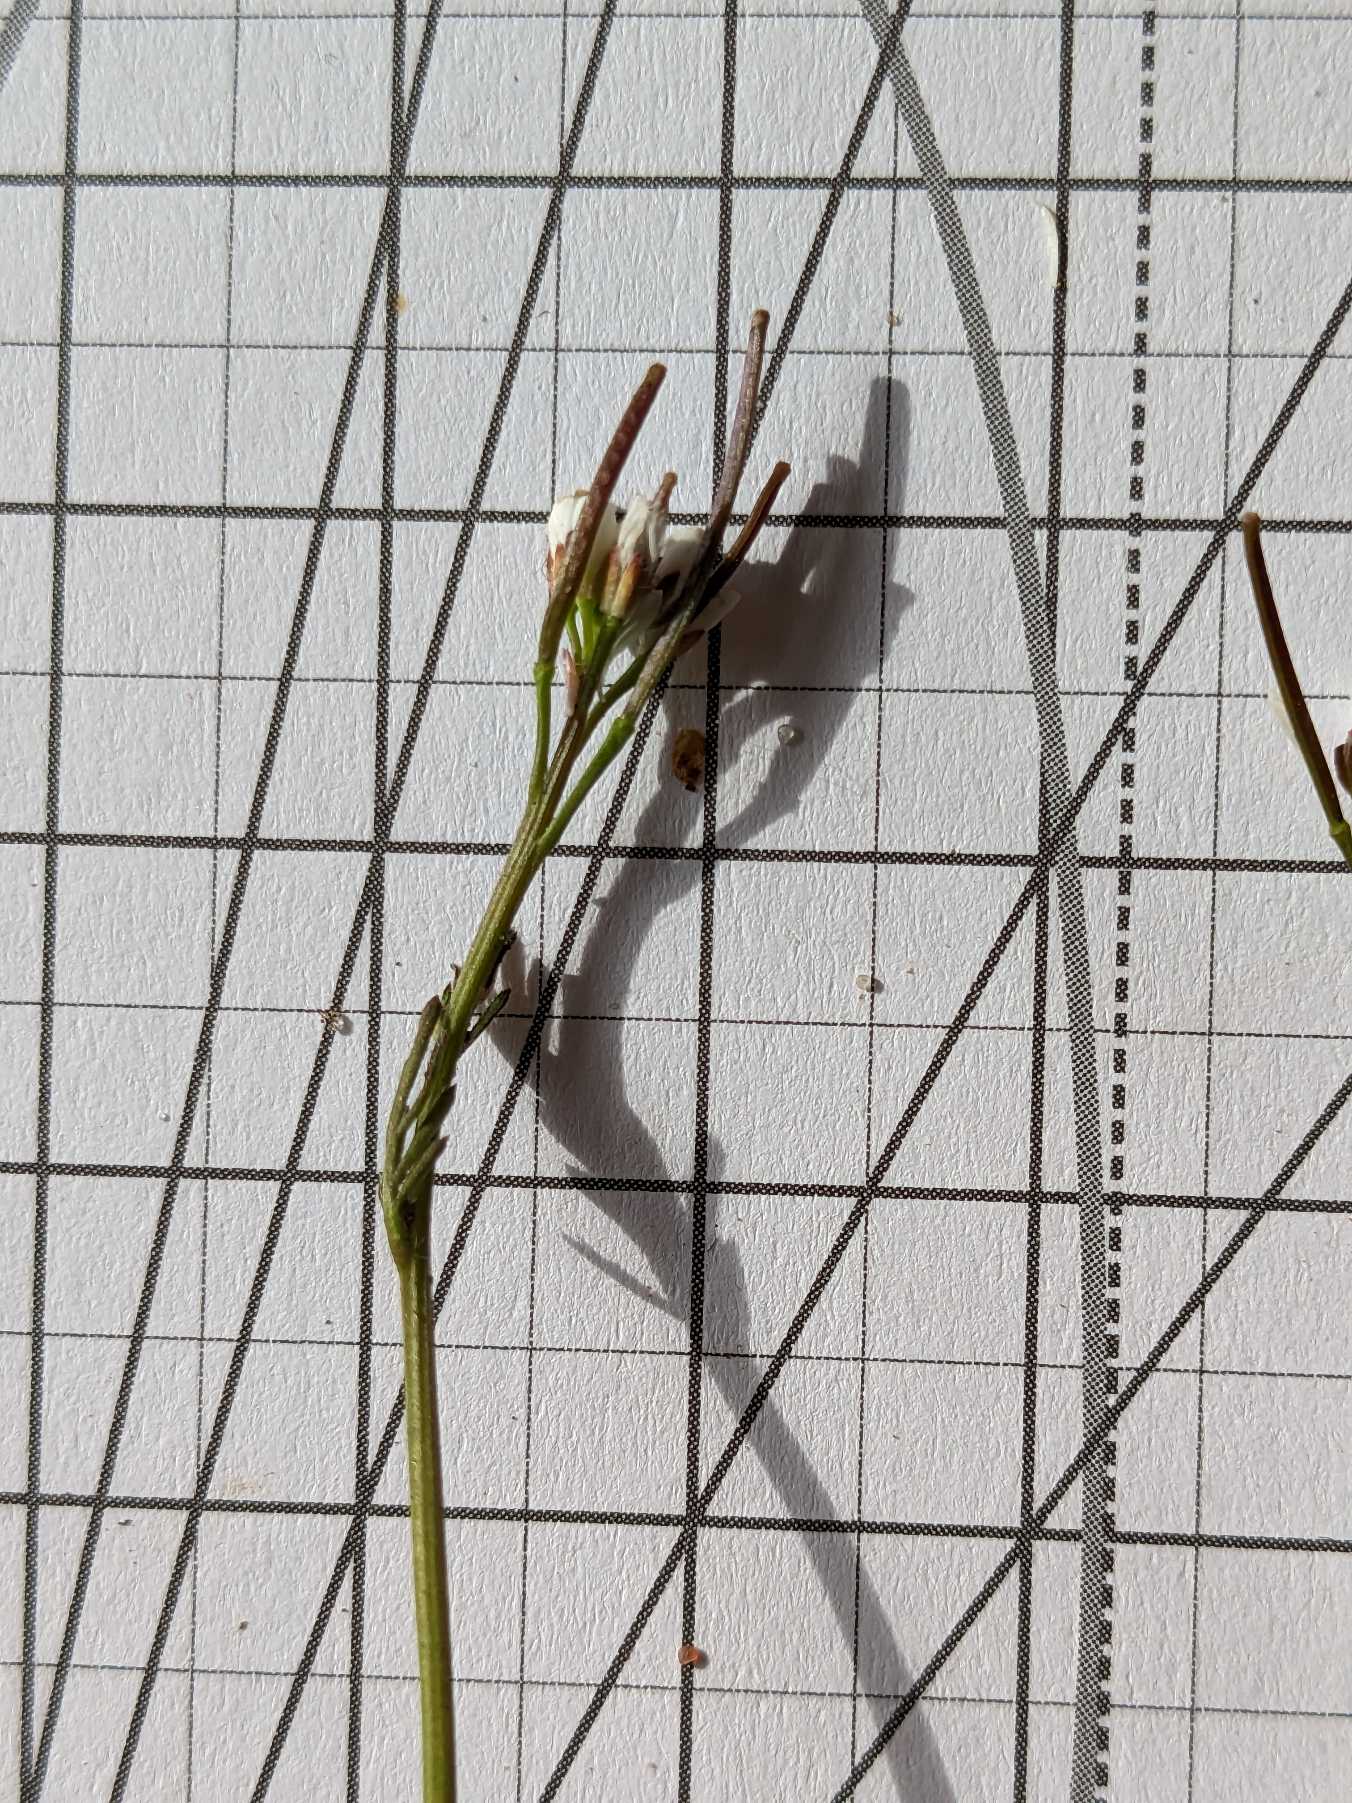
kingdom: Plantae
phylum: Tracheophyta
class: Magnoliopsida
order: Brassicales
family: Brassicaceae
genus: Cardamine
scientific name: Cardamine hirsuta
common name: Roset-springklap
